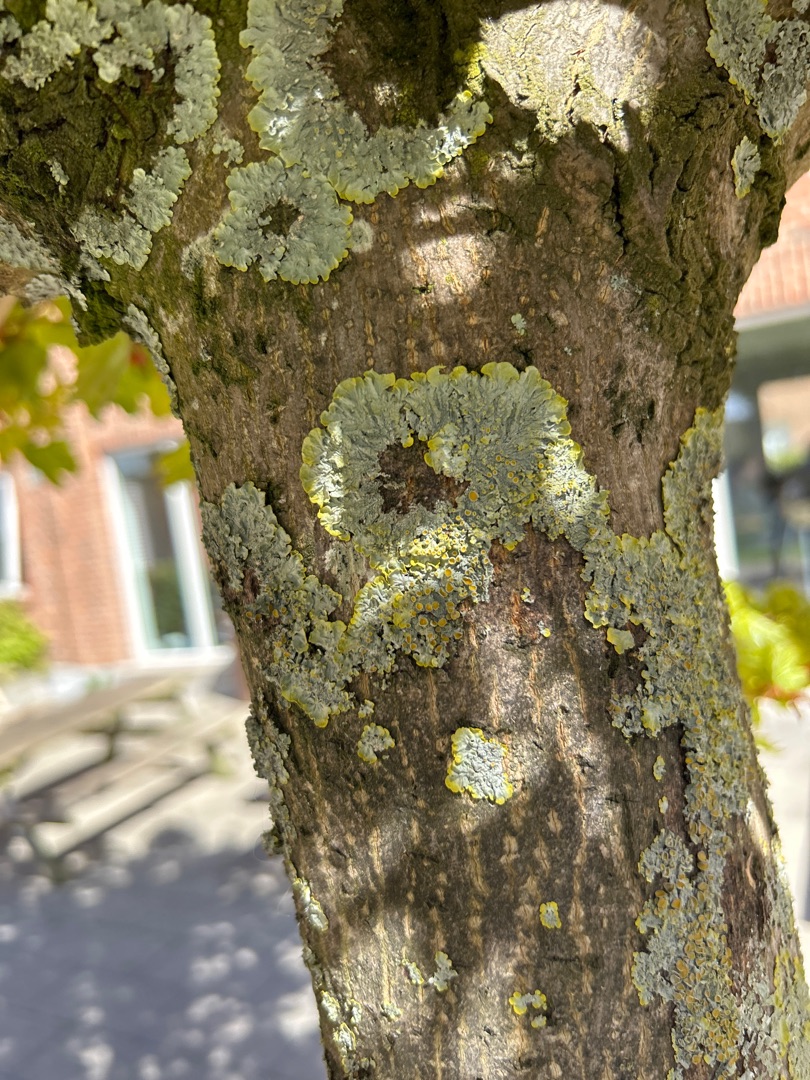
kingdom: Fungi
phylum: Ascomycota
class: Lecanoromycetes
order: Teloschistales
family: Teloschistaceae
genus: Xanthoria
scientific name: Xanthoria parietina
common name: Almindelig væggelav
